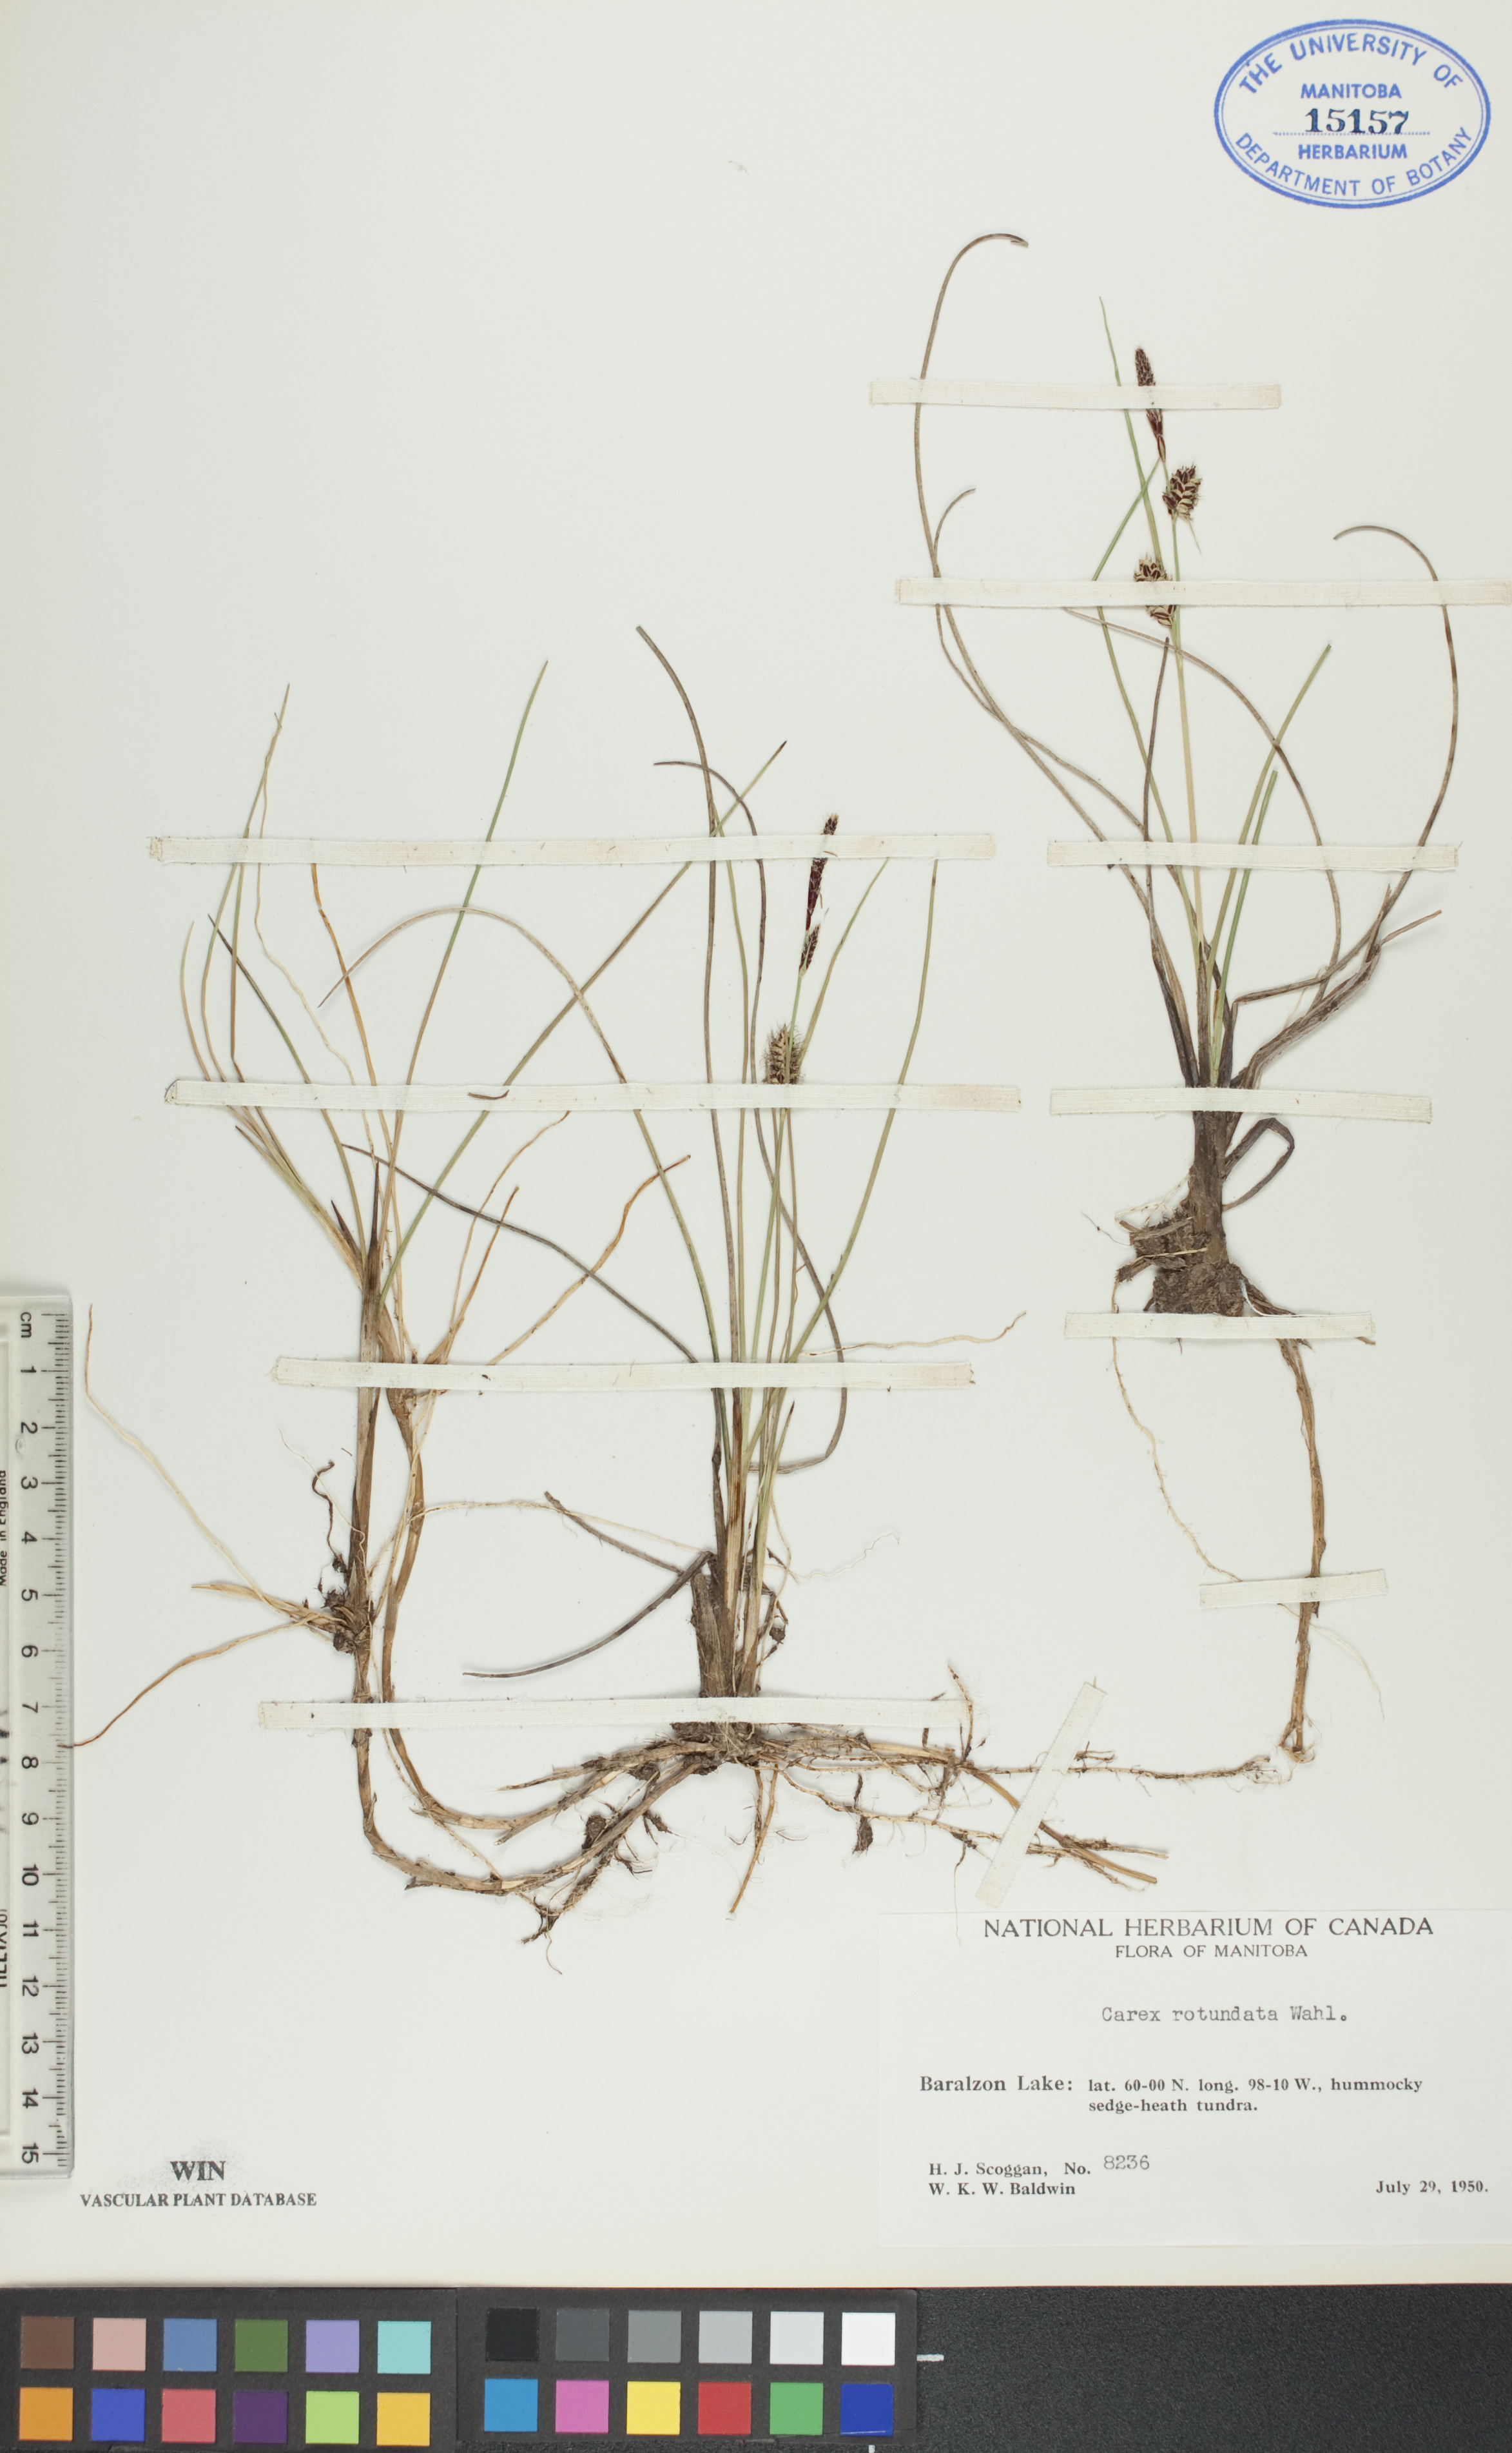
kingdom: Plantae
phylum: Tracheophyta
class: Liliopsida
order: Poales
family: Cyperaceae
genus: Carex
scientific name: Carex rotundata
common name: Round-fruited sedge
